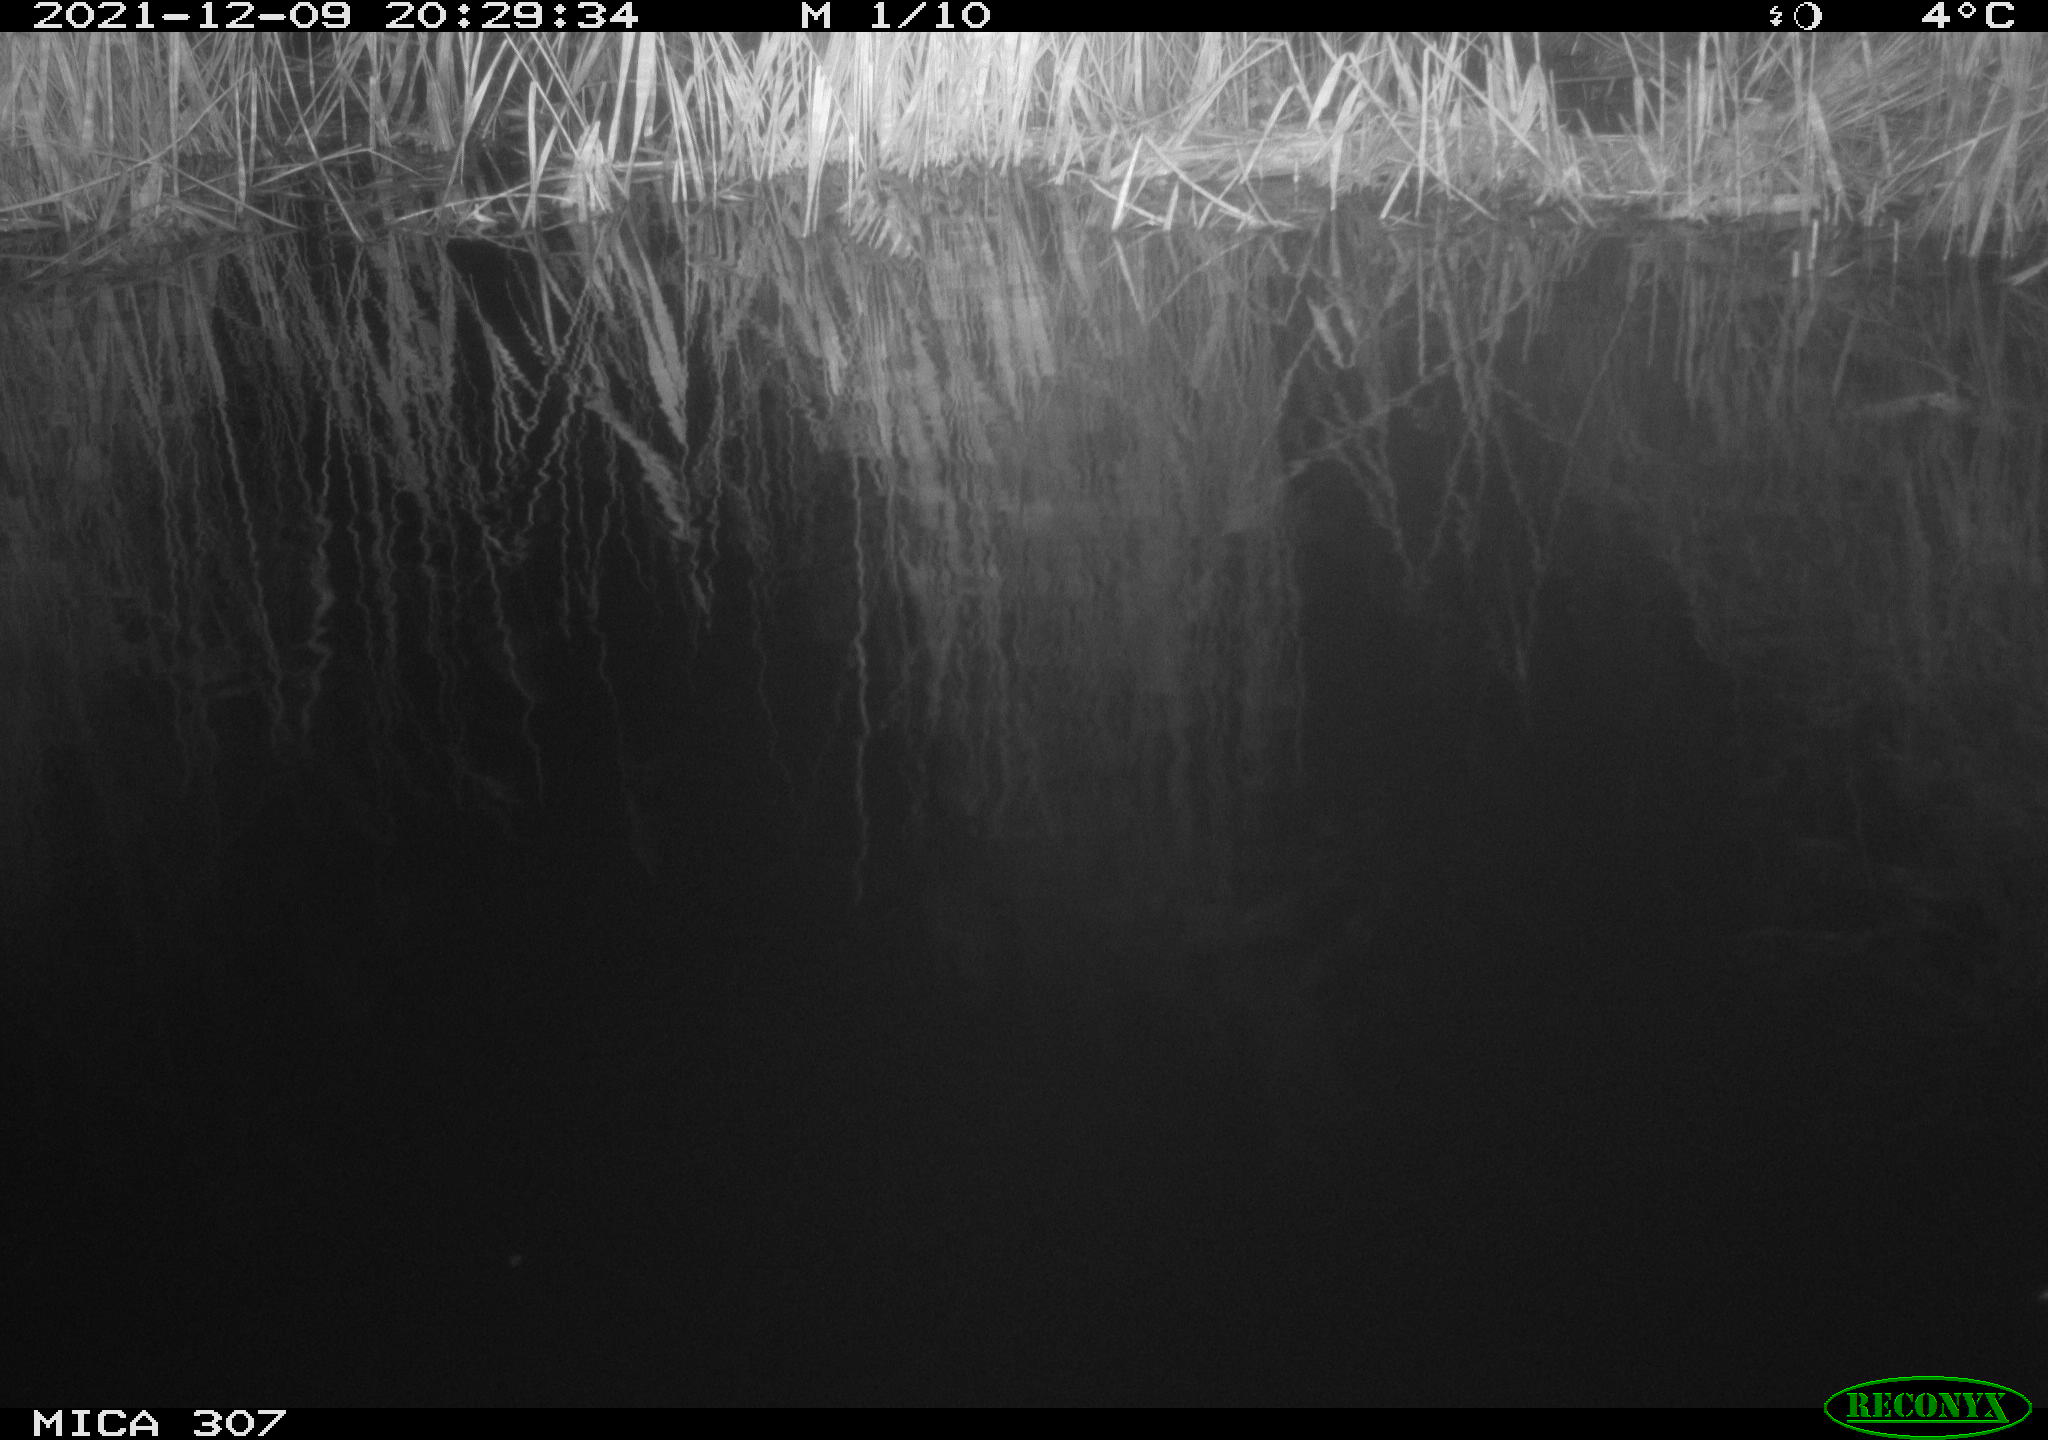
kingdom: Animalia
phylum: Chordata
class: Mammalia
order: Rodentia
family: Muridae
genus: Rattus
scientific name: Rattus norvegicus
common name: Brown rat
